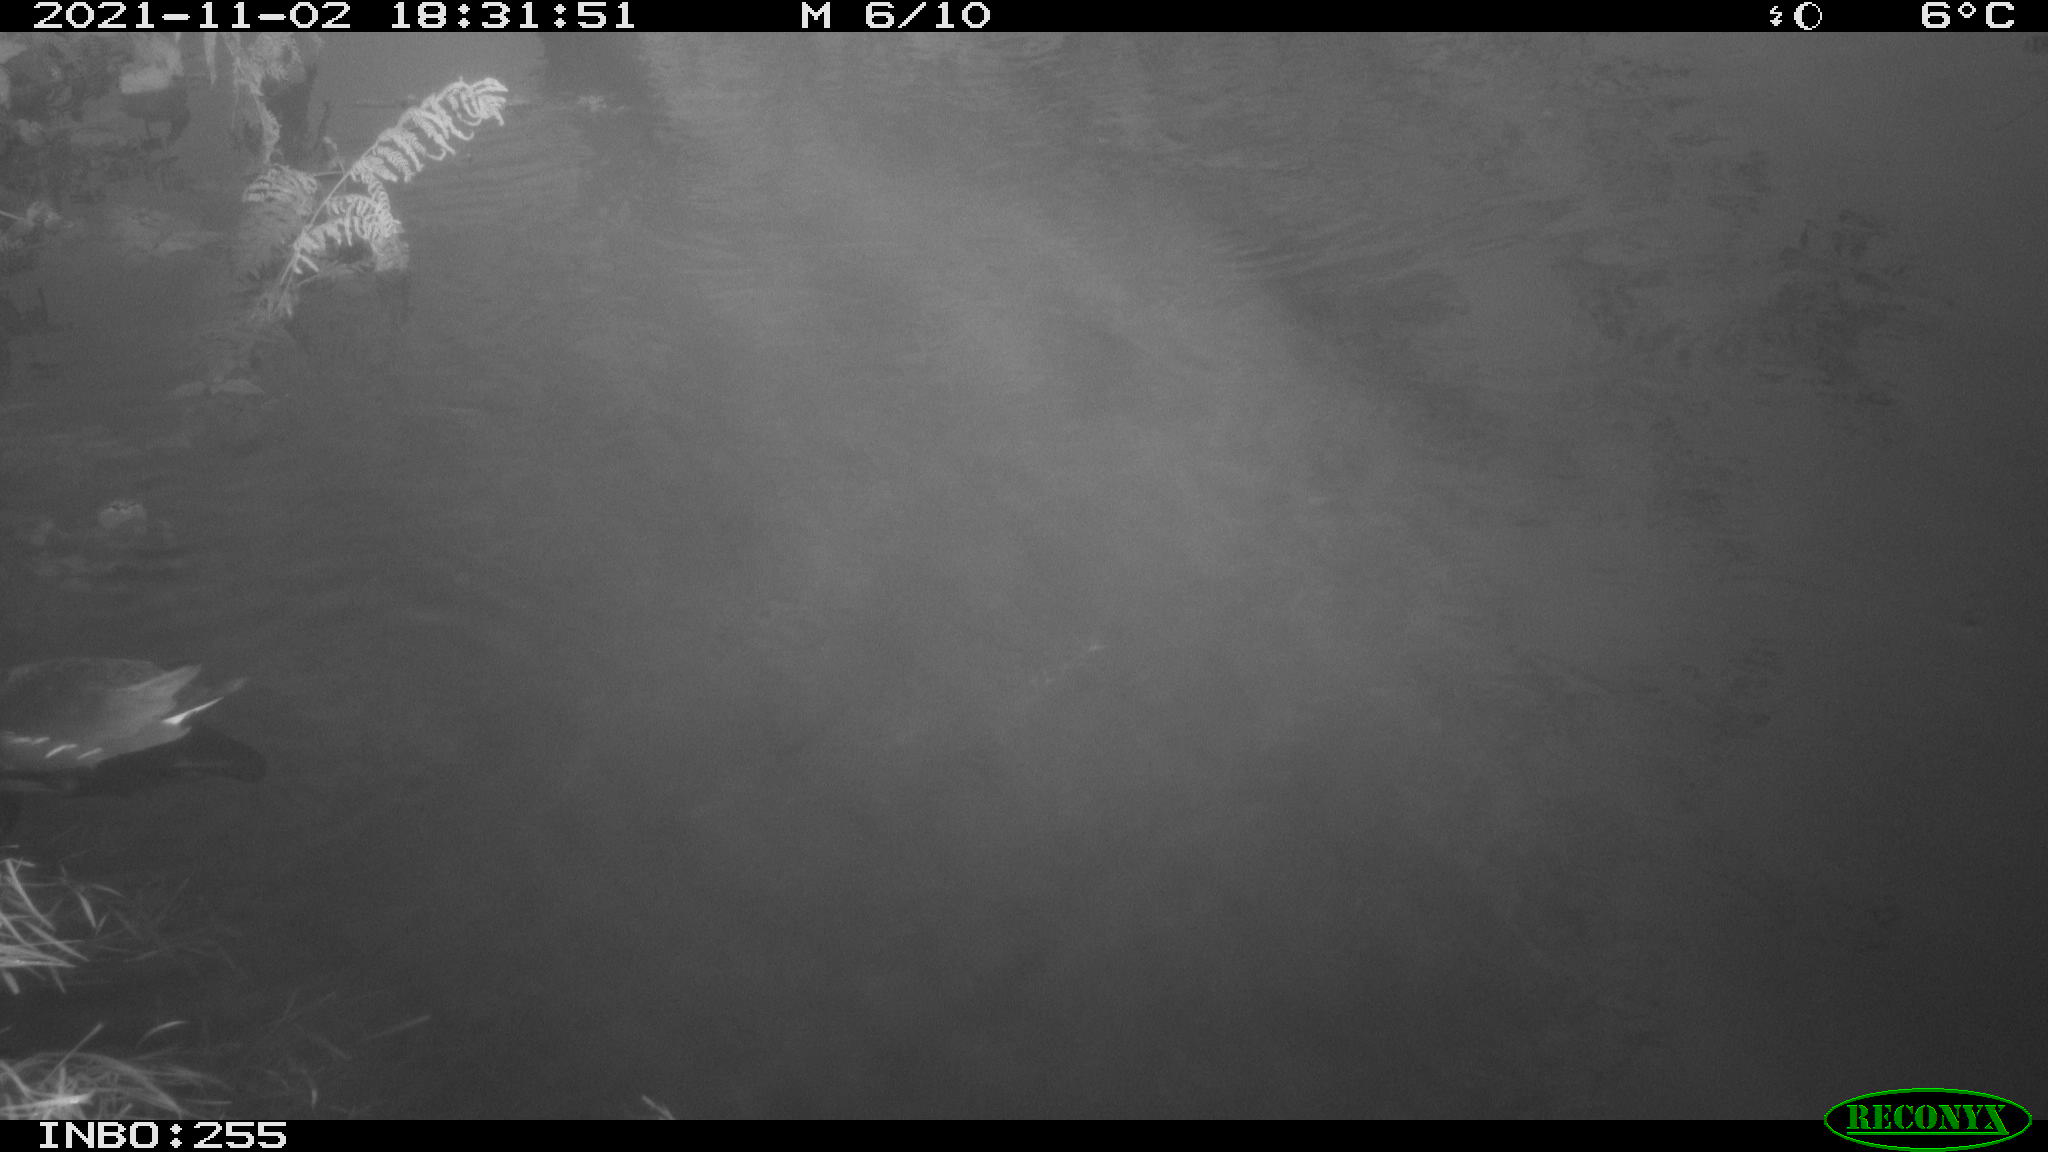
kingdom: Animalia
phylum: Chordata
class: Aves
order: Gruiformes
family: Rallidae
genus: Gallinula
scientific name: Gallinula chloropus
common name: Common moorhen
